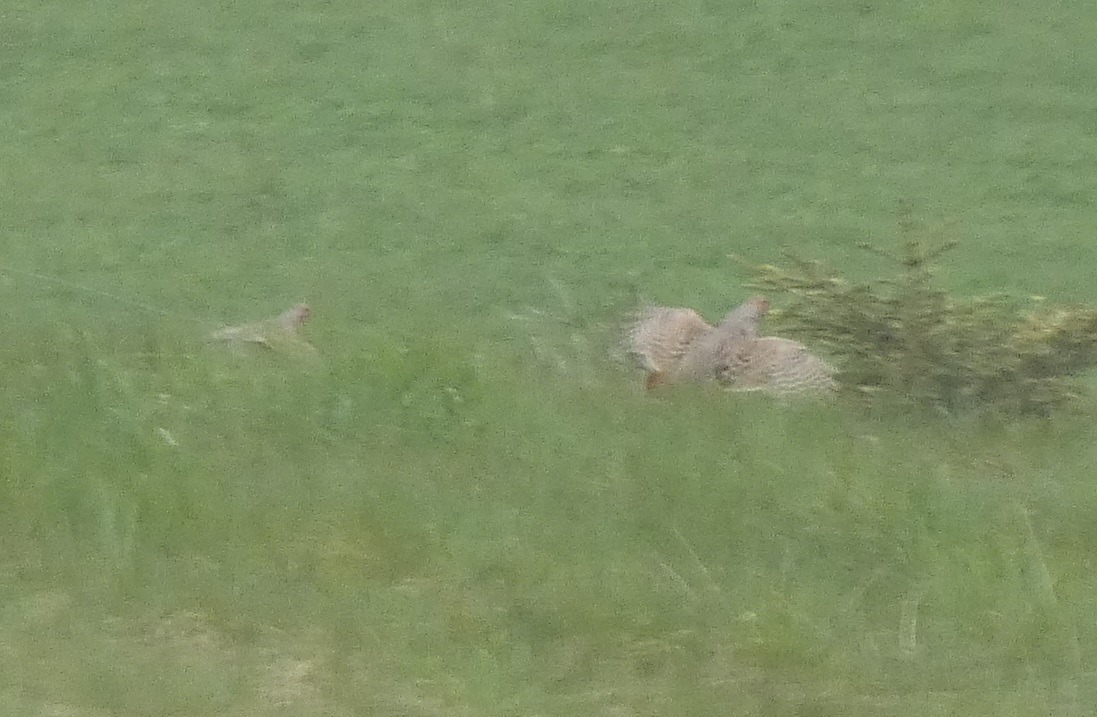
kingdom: Animalia
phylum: Chordata
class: Aves
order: Galliformes
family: Phasianidae
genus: Perdix
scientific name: Perdix perdix
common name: Agerhøne
